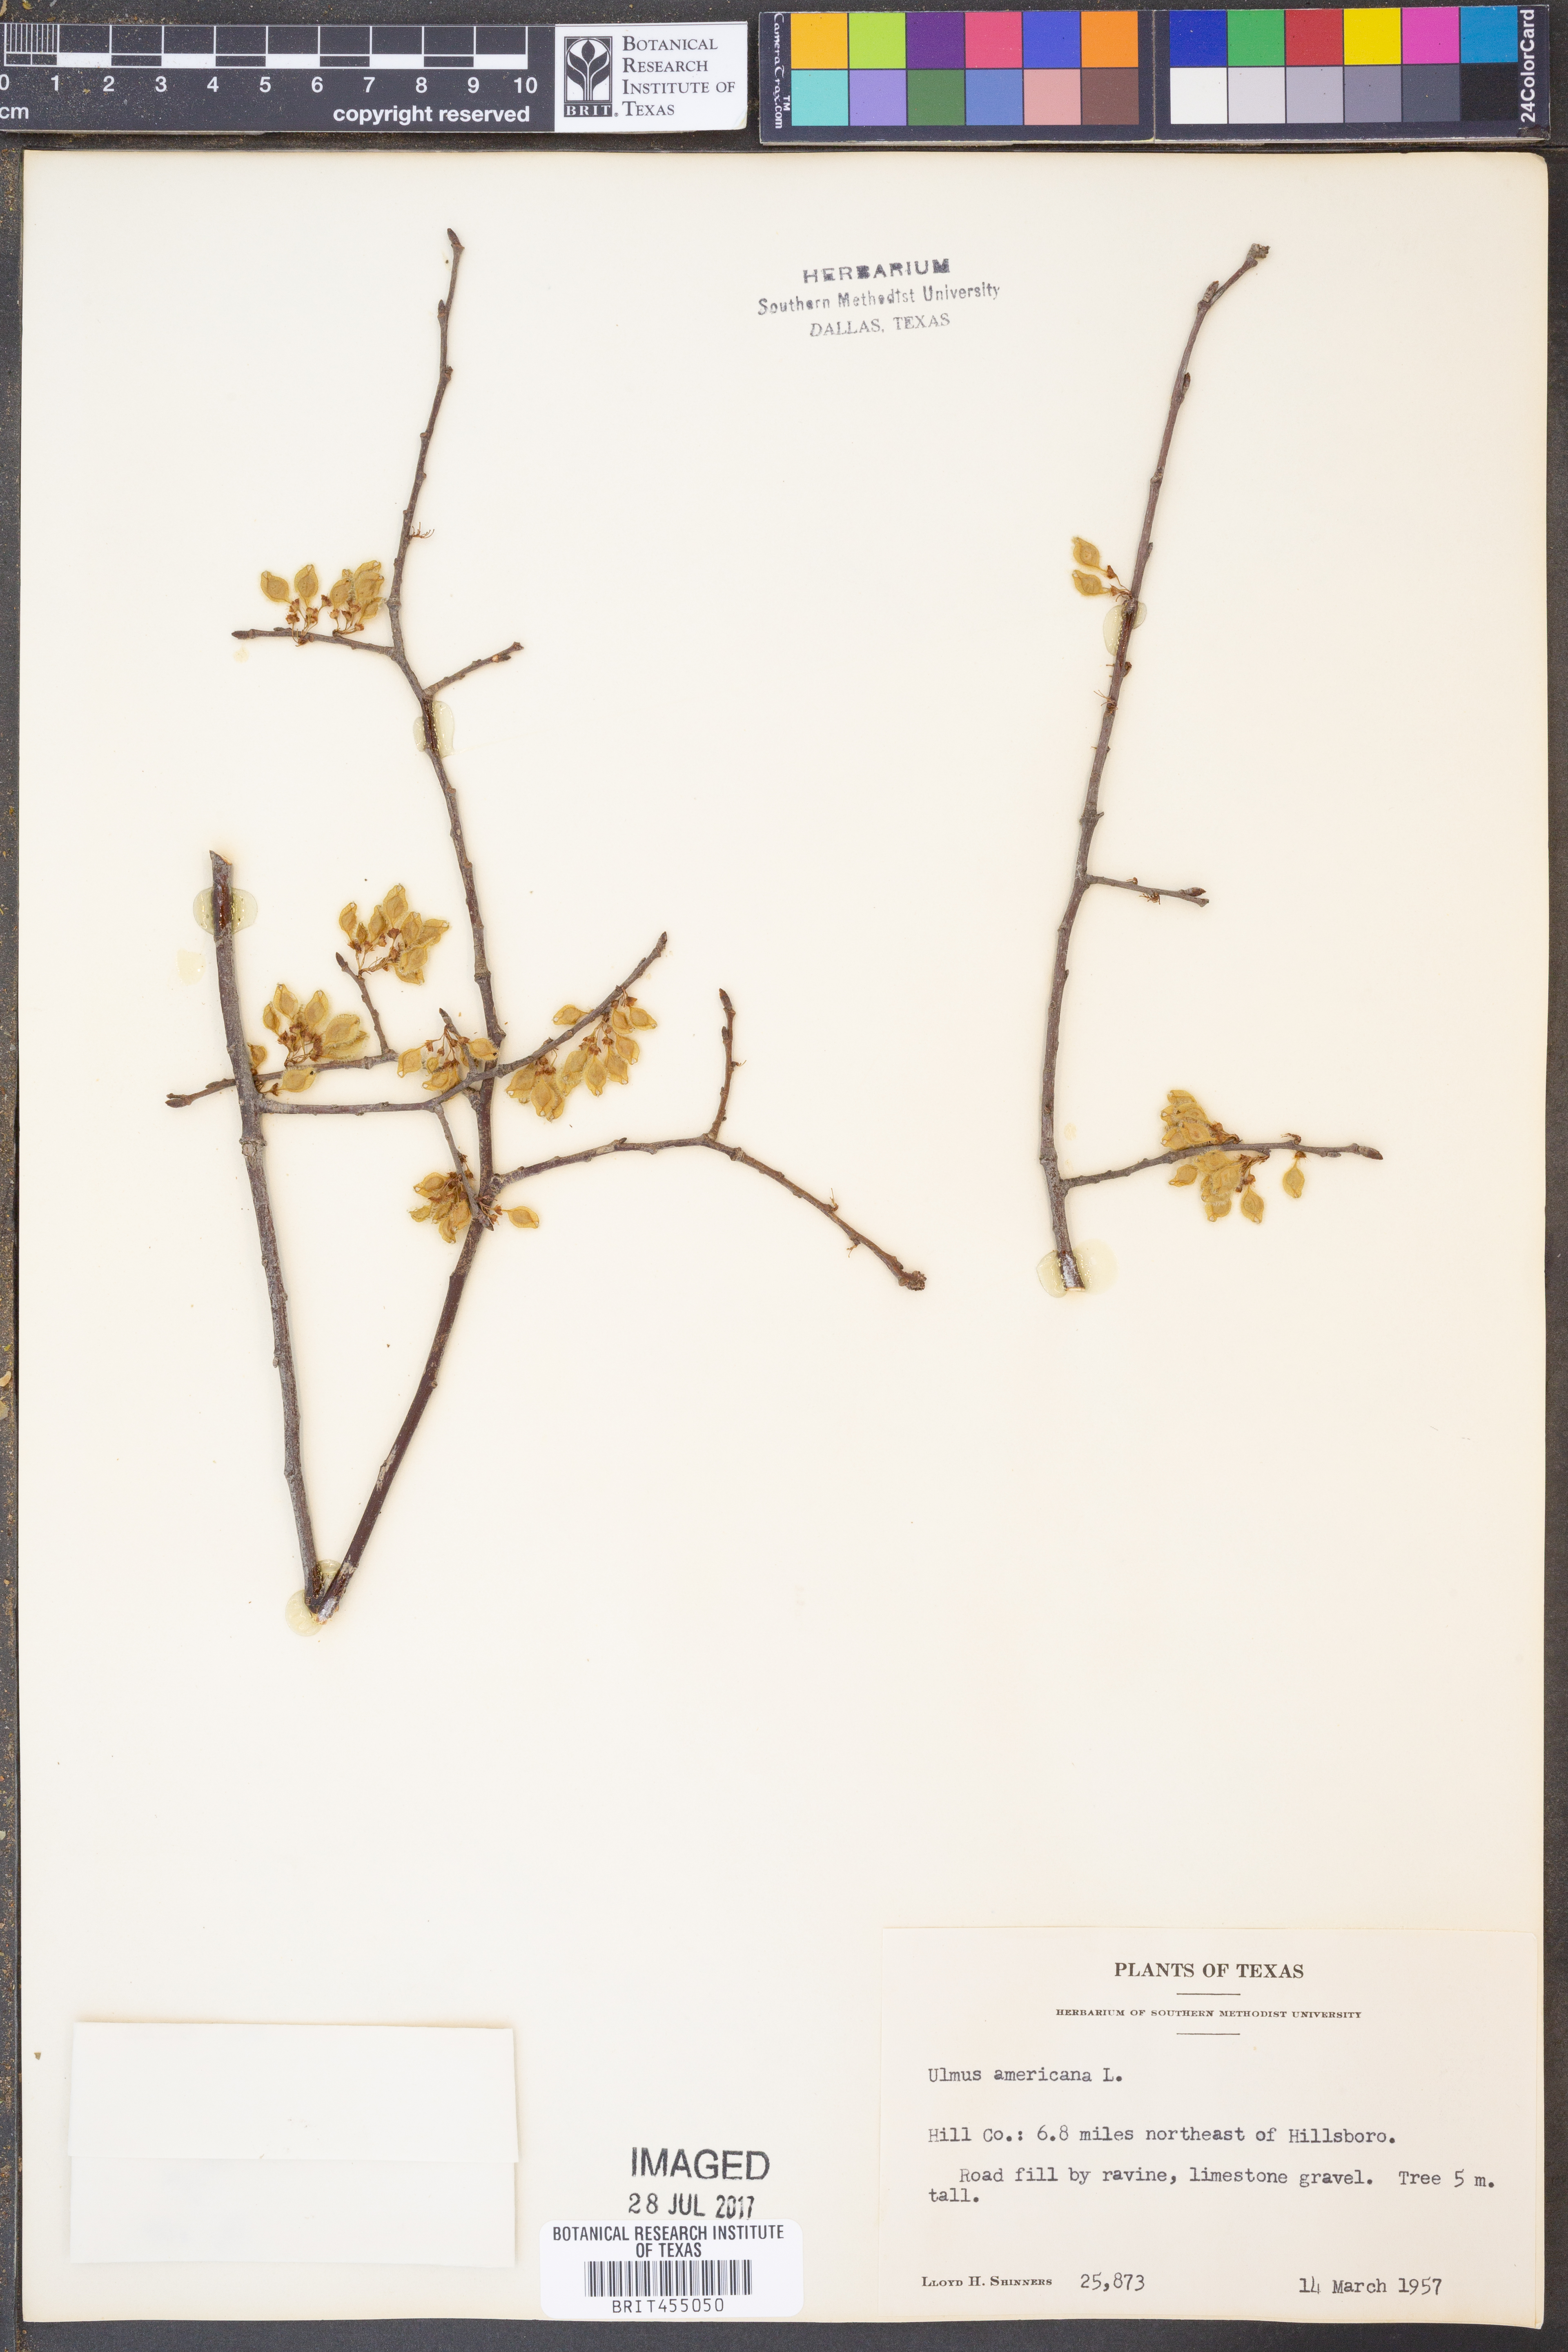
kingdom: Plantae
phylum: Tracheophyta
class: Magnoliopsida
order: Rosales
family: Ulmaceae
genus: Ulmus
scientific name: Ulmus americana
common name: American elm
